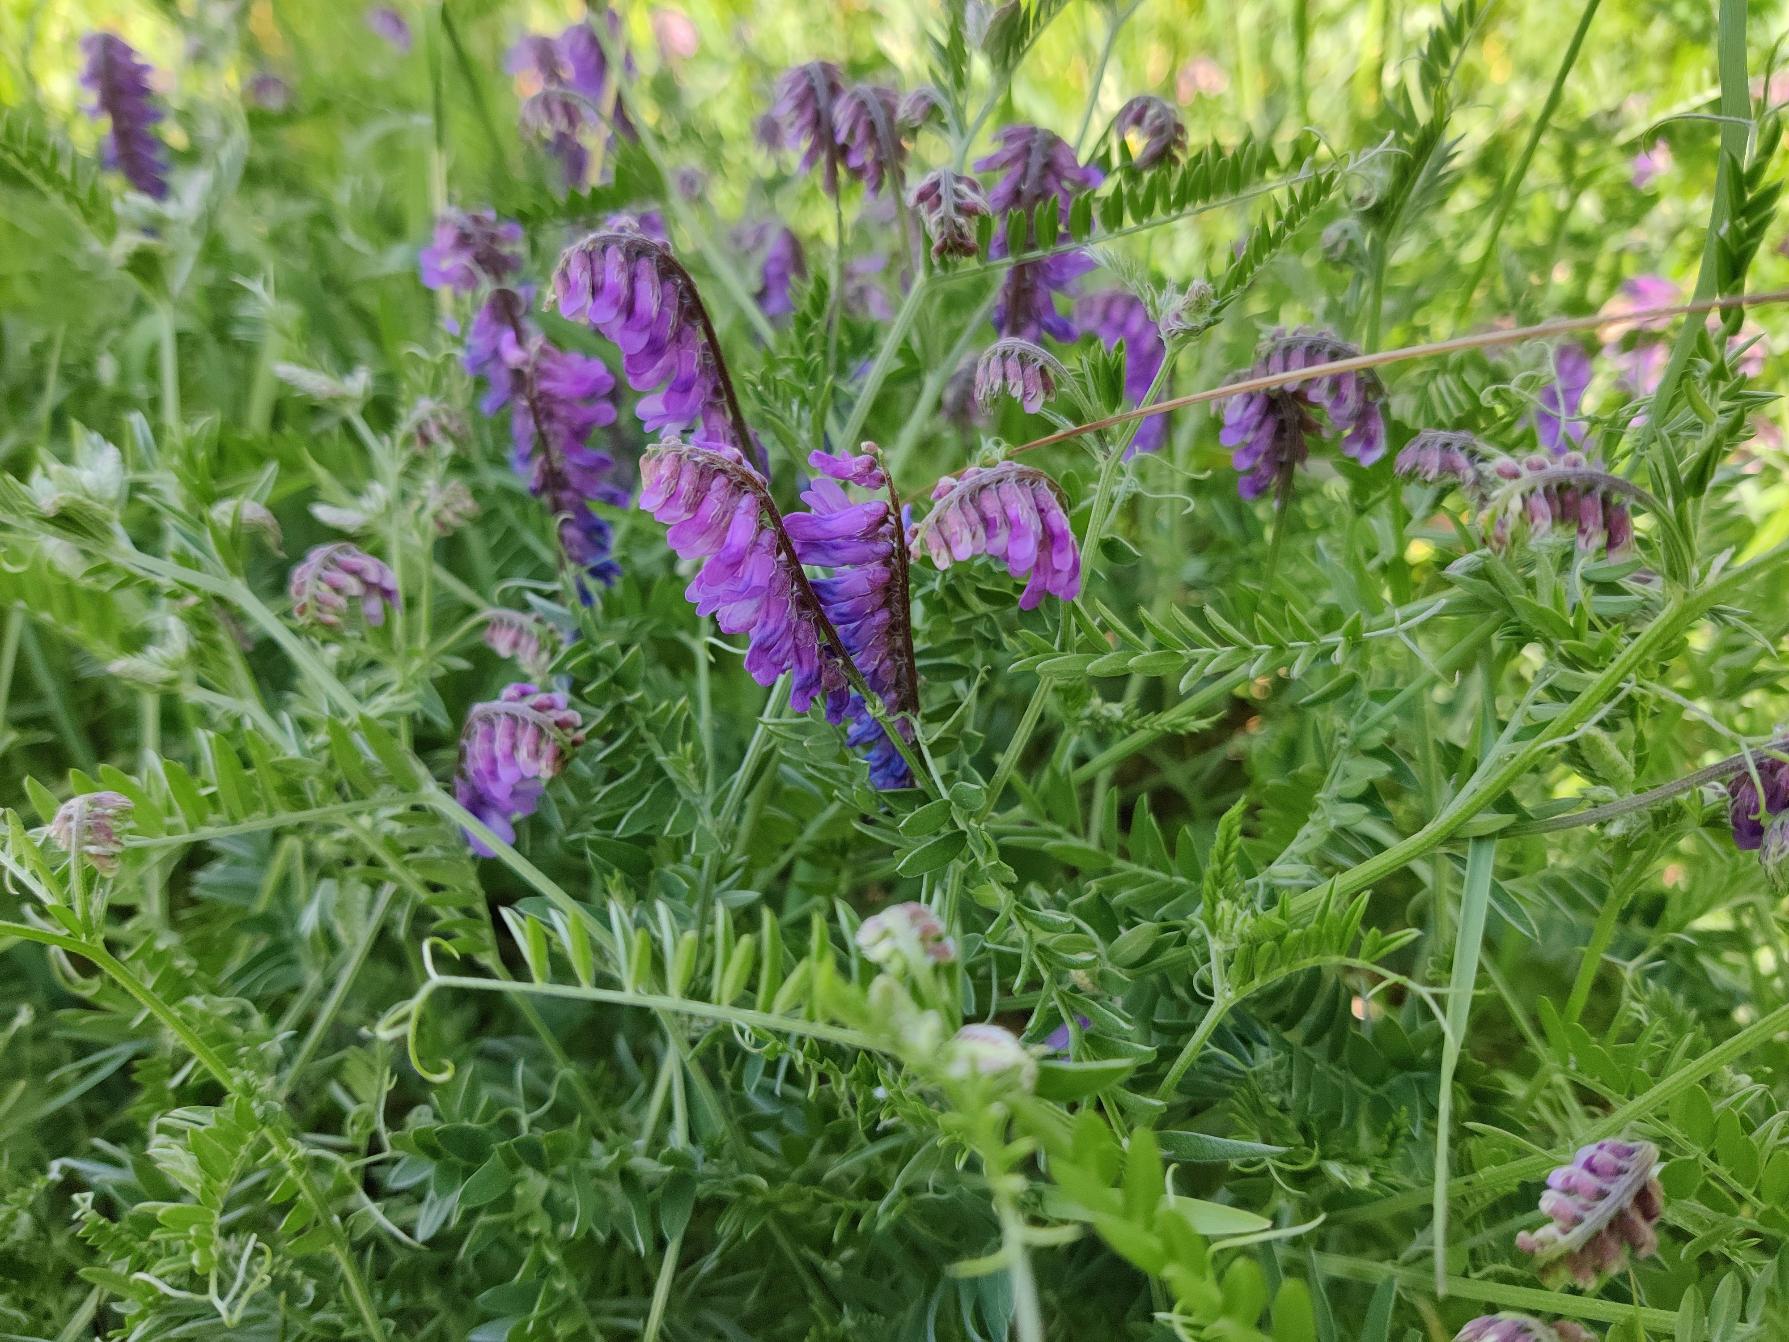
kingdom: Plantae
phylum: Tracheophyta
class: Magnoliopsida
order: Fabales
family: Fabaceae
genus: Vicia
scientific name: Vicia cracca
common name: Muse-vikke
